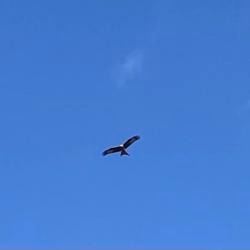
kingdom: Animalia
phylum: Chordata
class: Aves
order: Accipitriformes
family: Accipitridae
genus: Milvus
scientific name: Milvus milvus
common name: Rød glente
